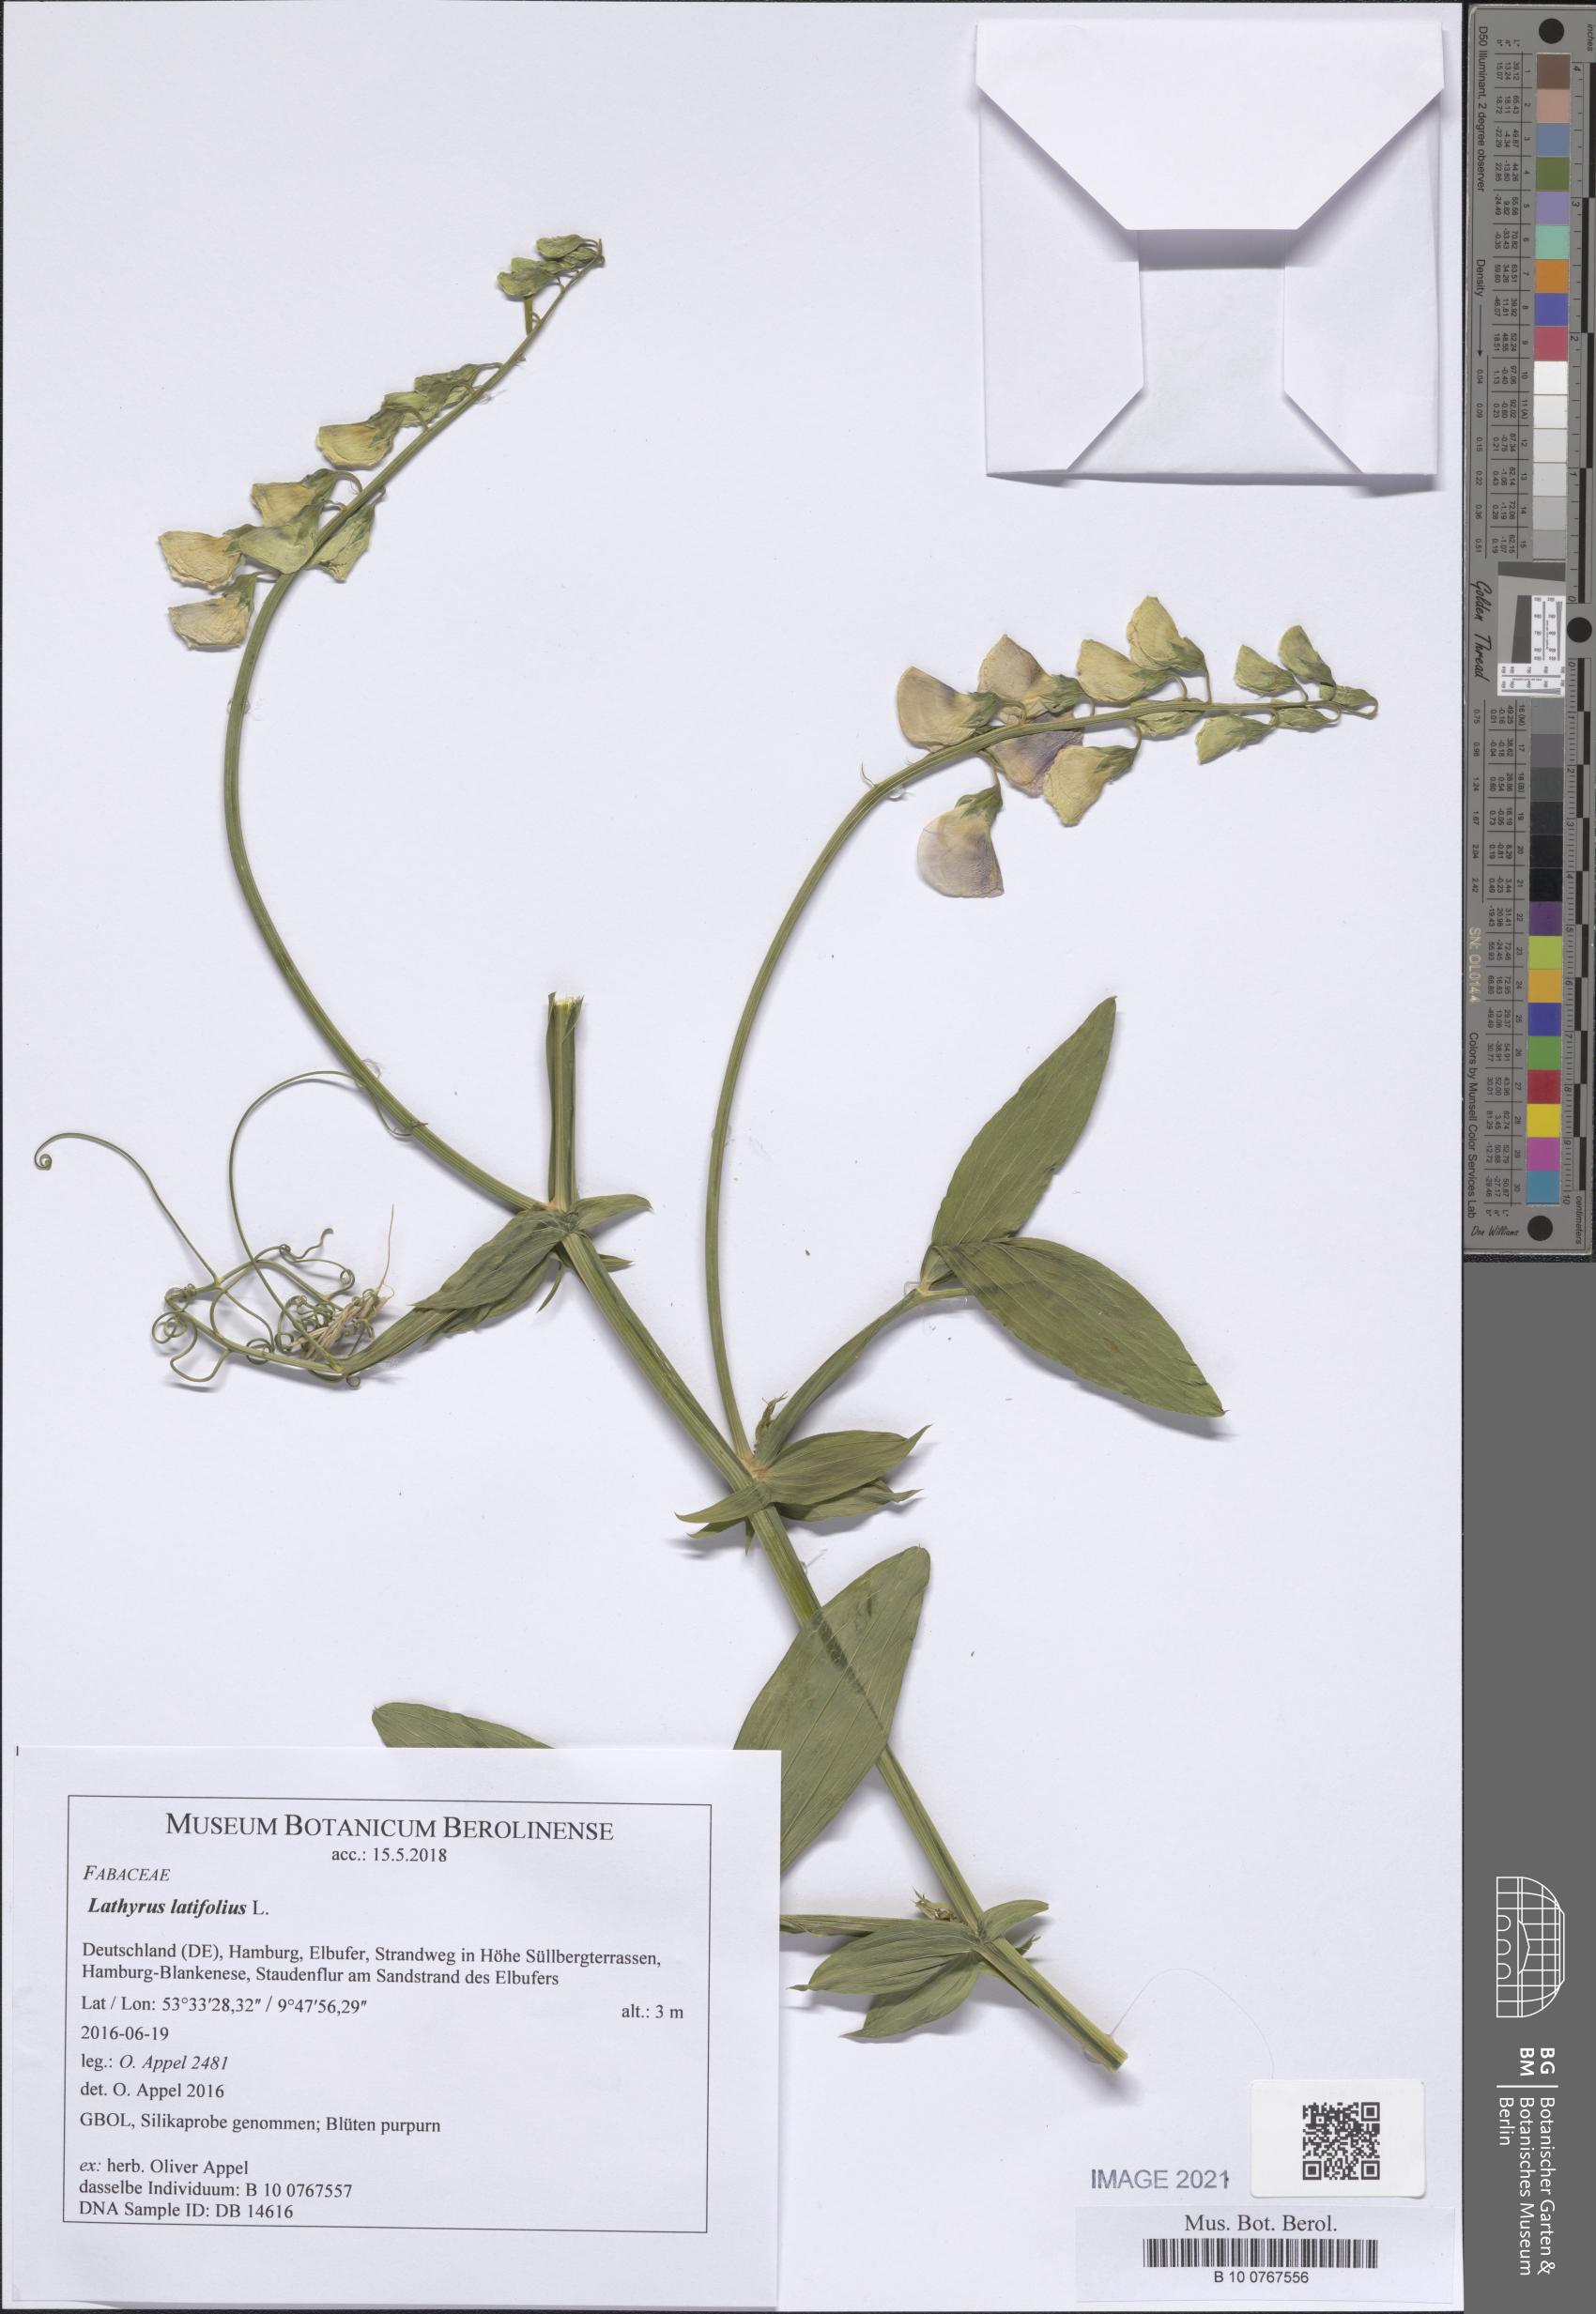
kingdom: Plantae
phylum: Tracheophyta
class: Magnoliopsida
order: Fabales
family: Fabaceae
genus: Lathyrus
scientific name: Lathyrus latifolius
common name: Perennial pea
